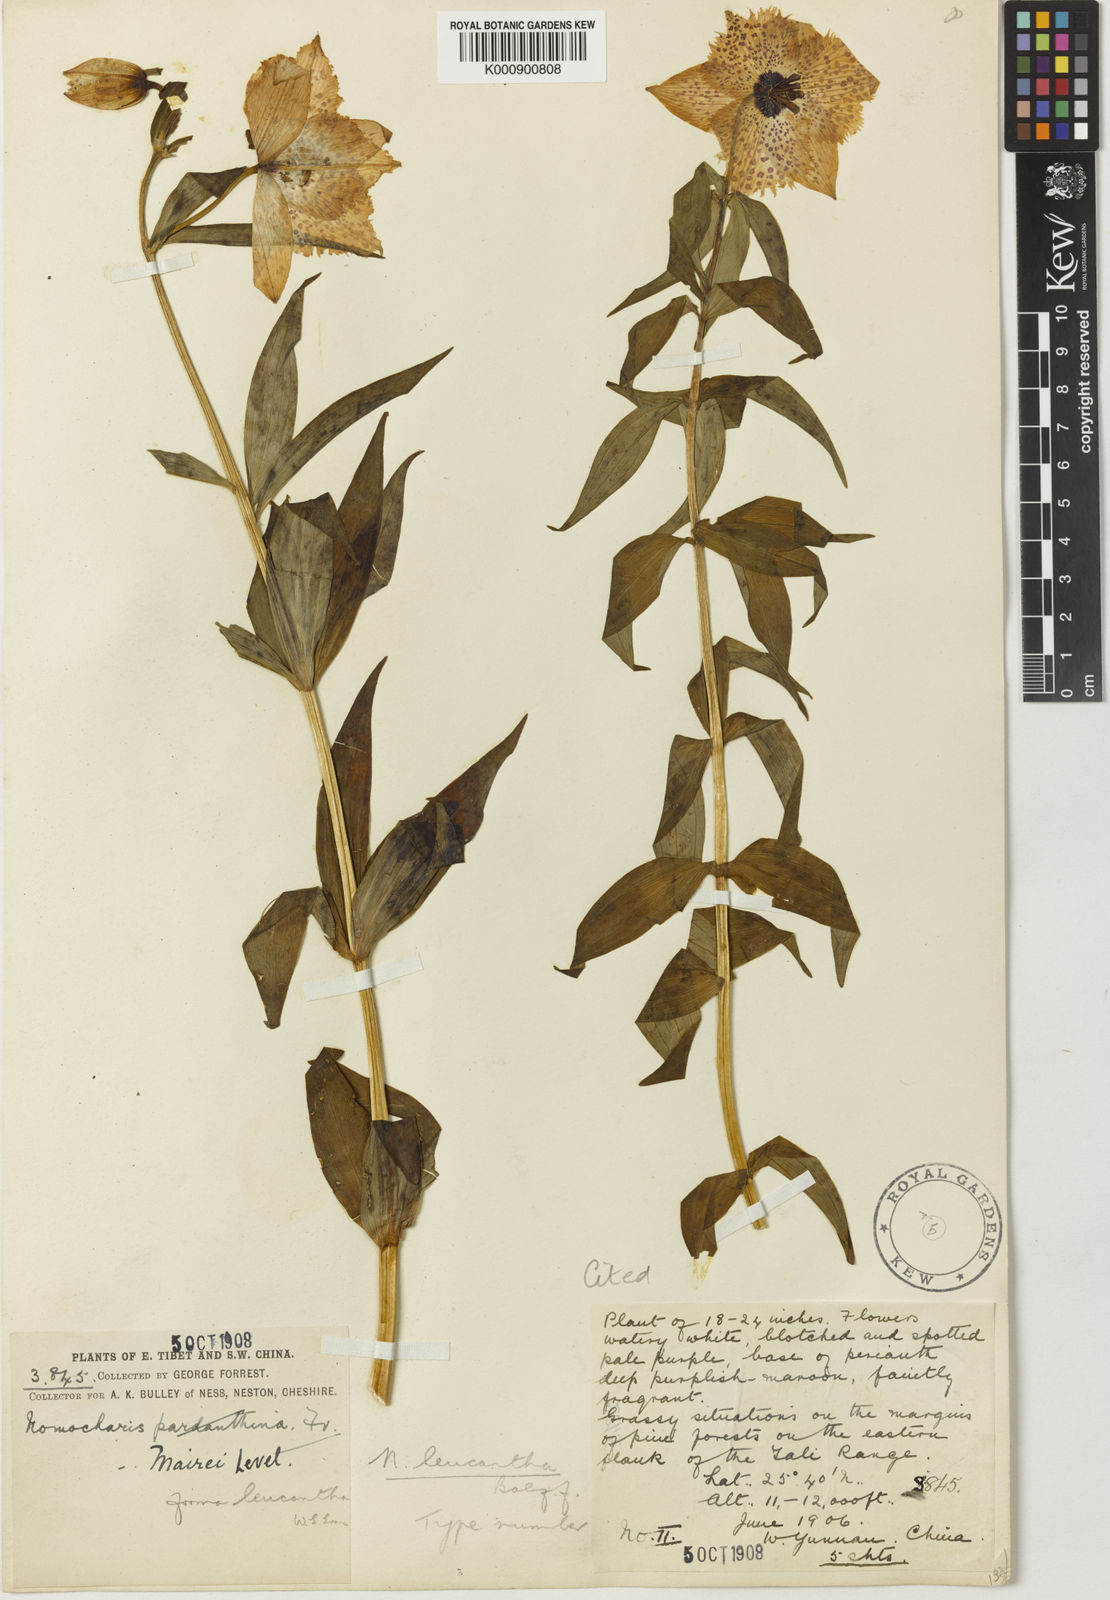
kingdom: Plantae
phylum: Tracheophyta
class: Liliopsida
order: Liliales
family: Liliaceae
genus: Lilium
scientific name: Lilium pardanthinum
